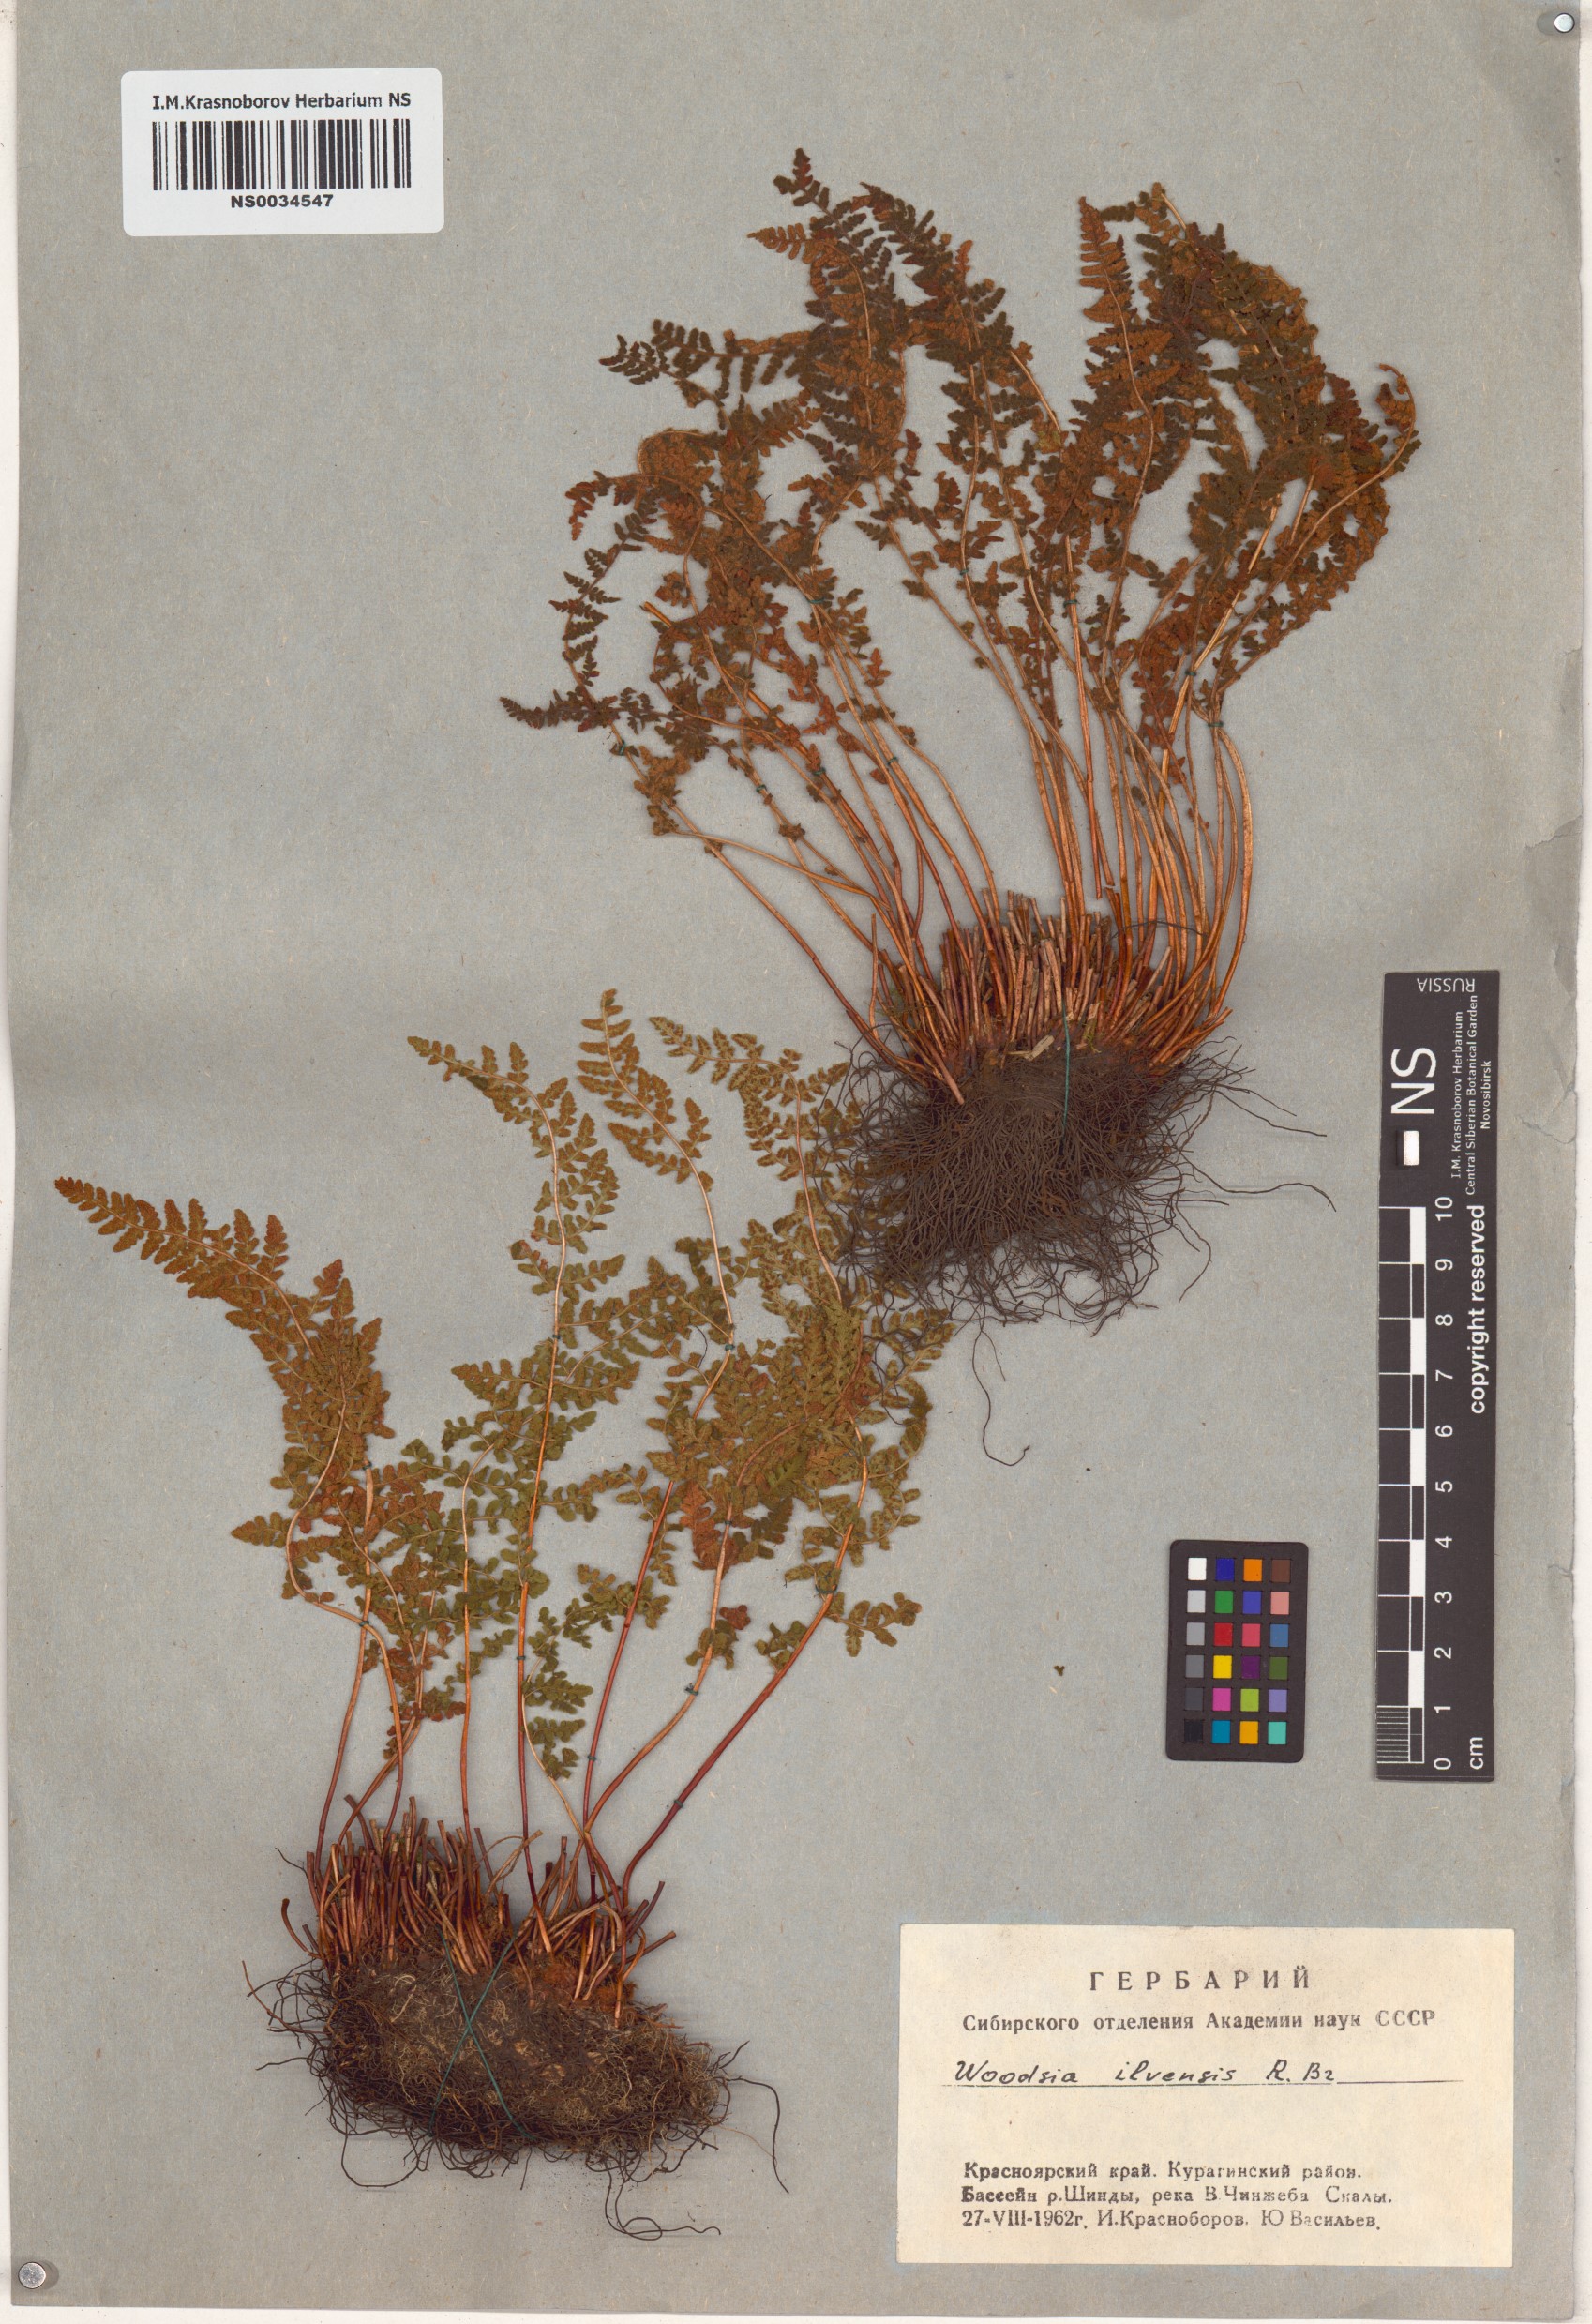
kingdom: Plantae
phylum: Tracheophyta
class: Polypodiopsida
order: Polypodiales
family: Woodsiaceae
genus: Woodsia
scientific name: Woodsia ilvensis
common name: Fragrant woodsia
